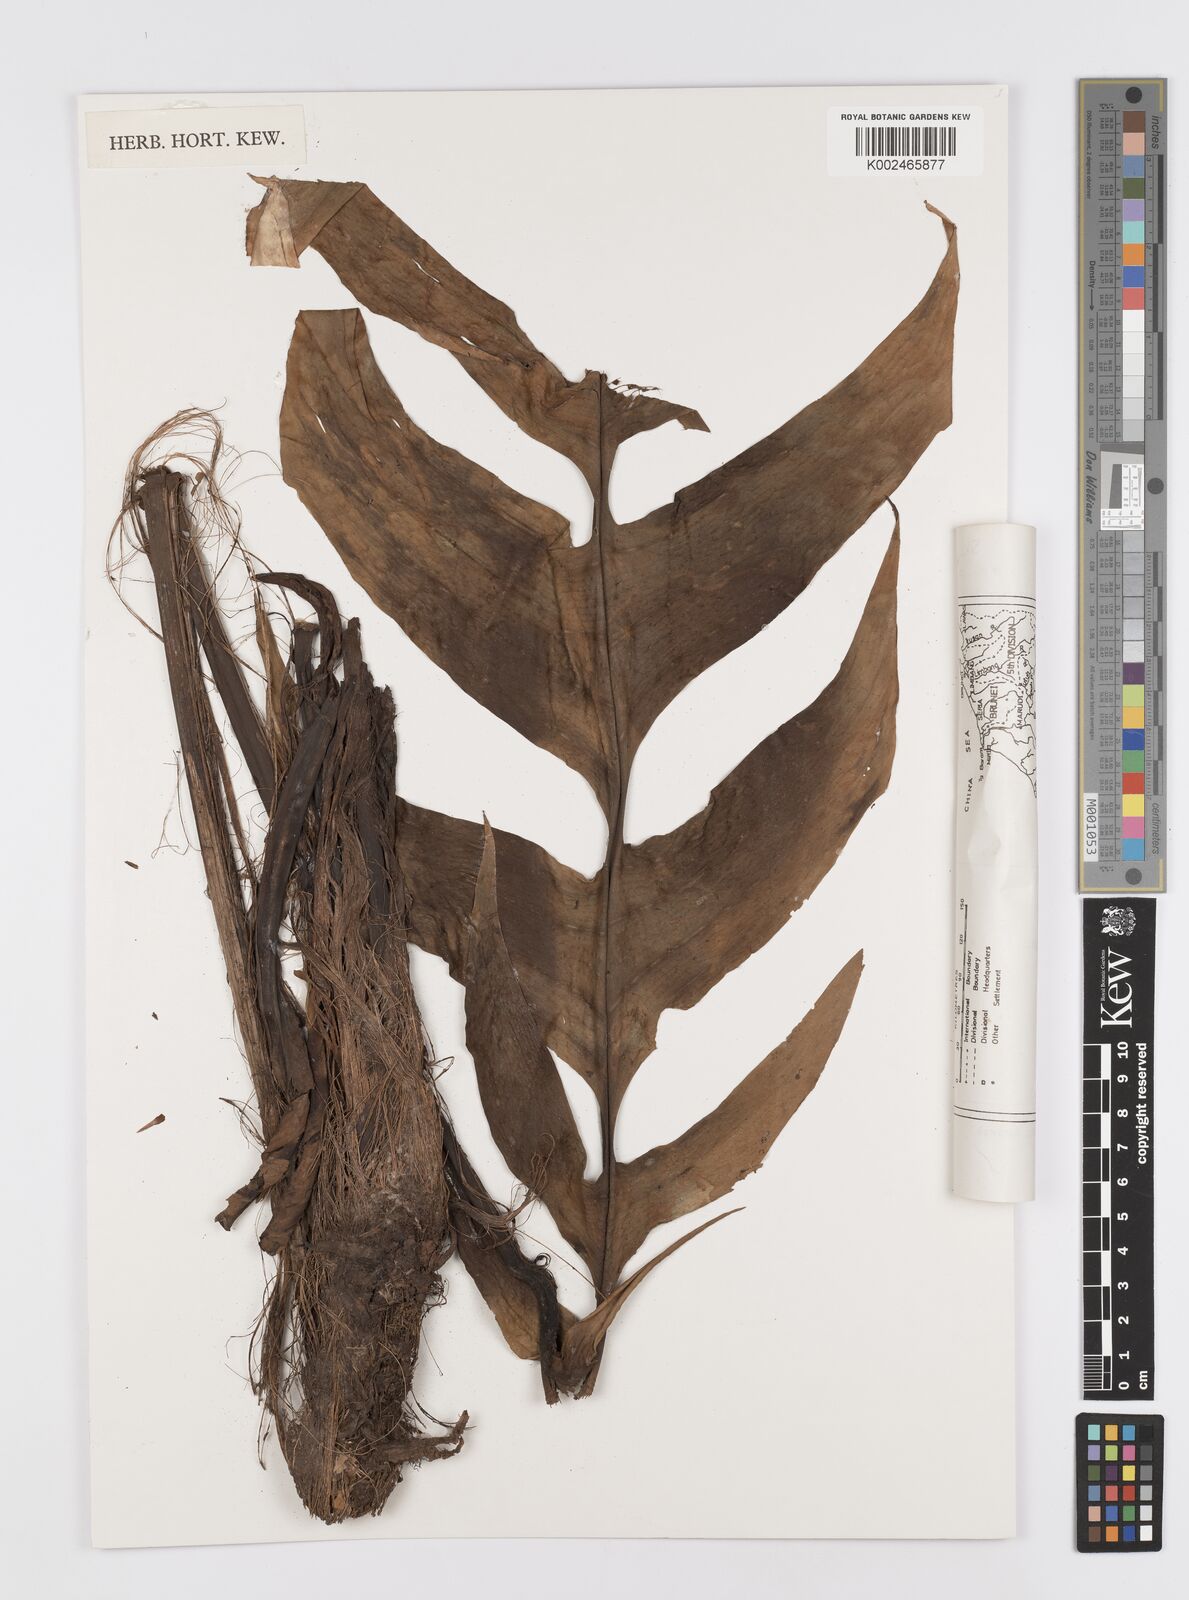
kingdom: Plantae
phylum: Tracheophyta
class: Liliopsida
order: Alismatales
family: Araceae
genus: Rhaphidophora
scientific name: Rhaphidophora korthalsii
